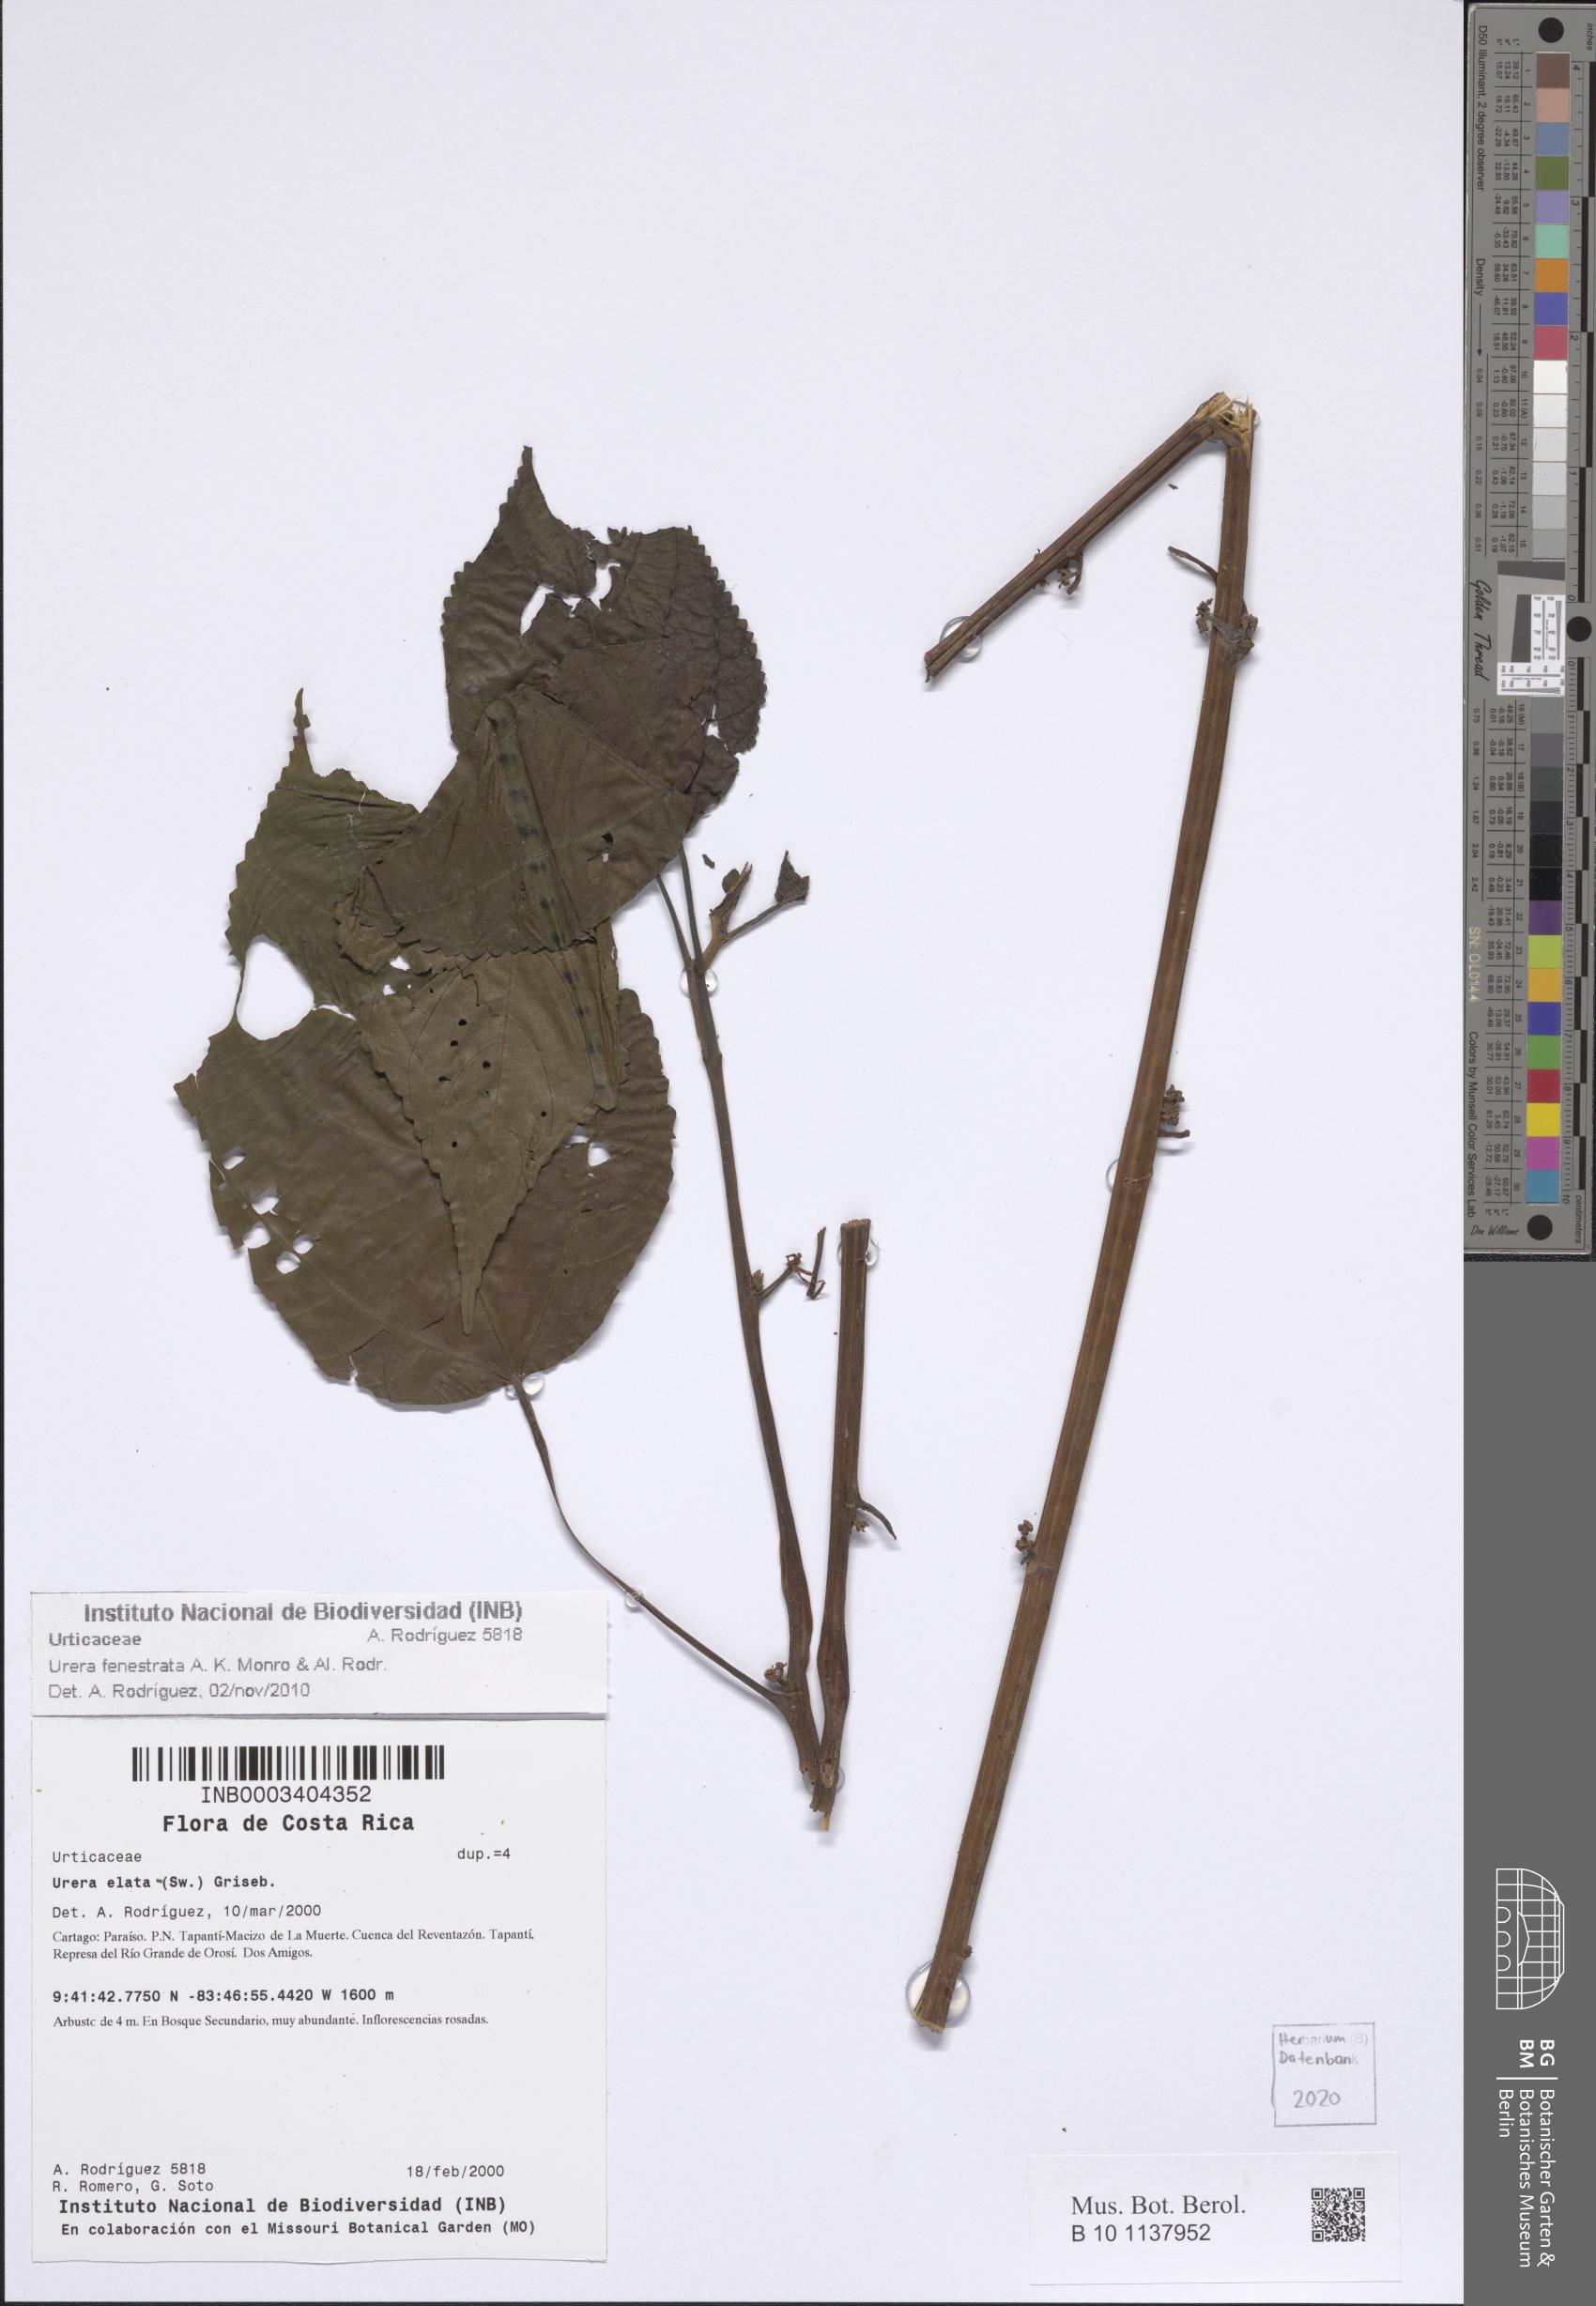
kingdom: Plantae
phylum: Tracheophyta
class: Magnoliopsida
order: Rosales
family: Urticaceae
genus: Urera
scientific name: Urera fenestrata
